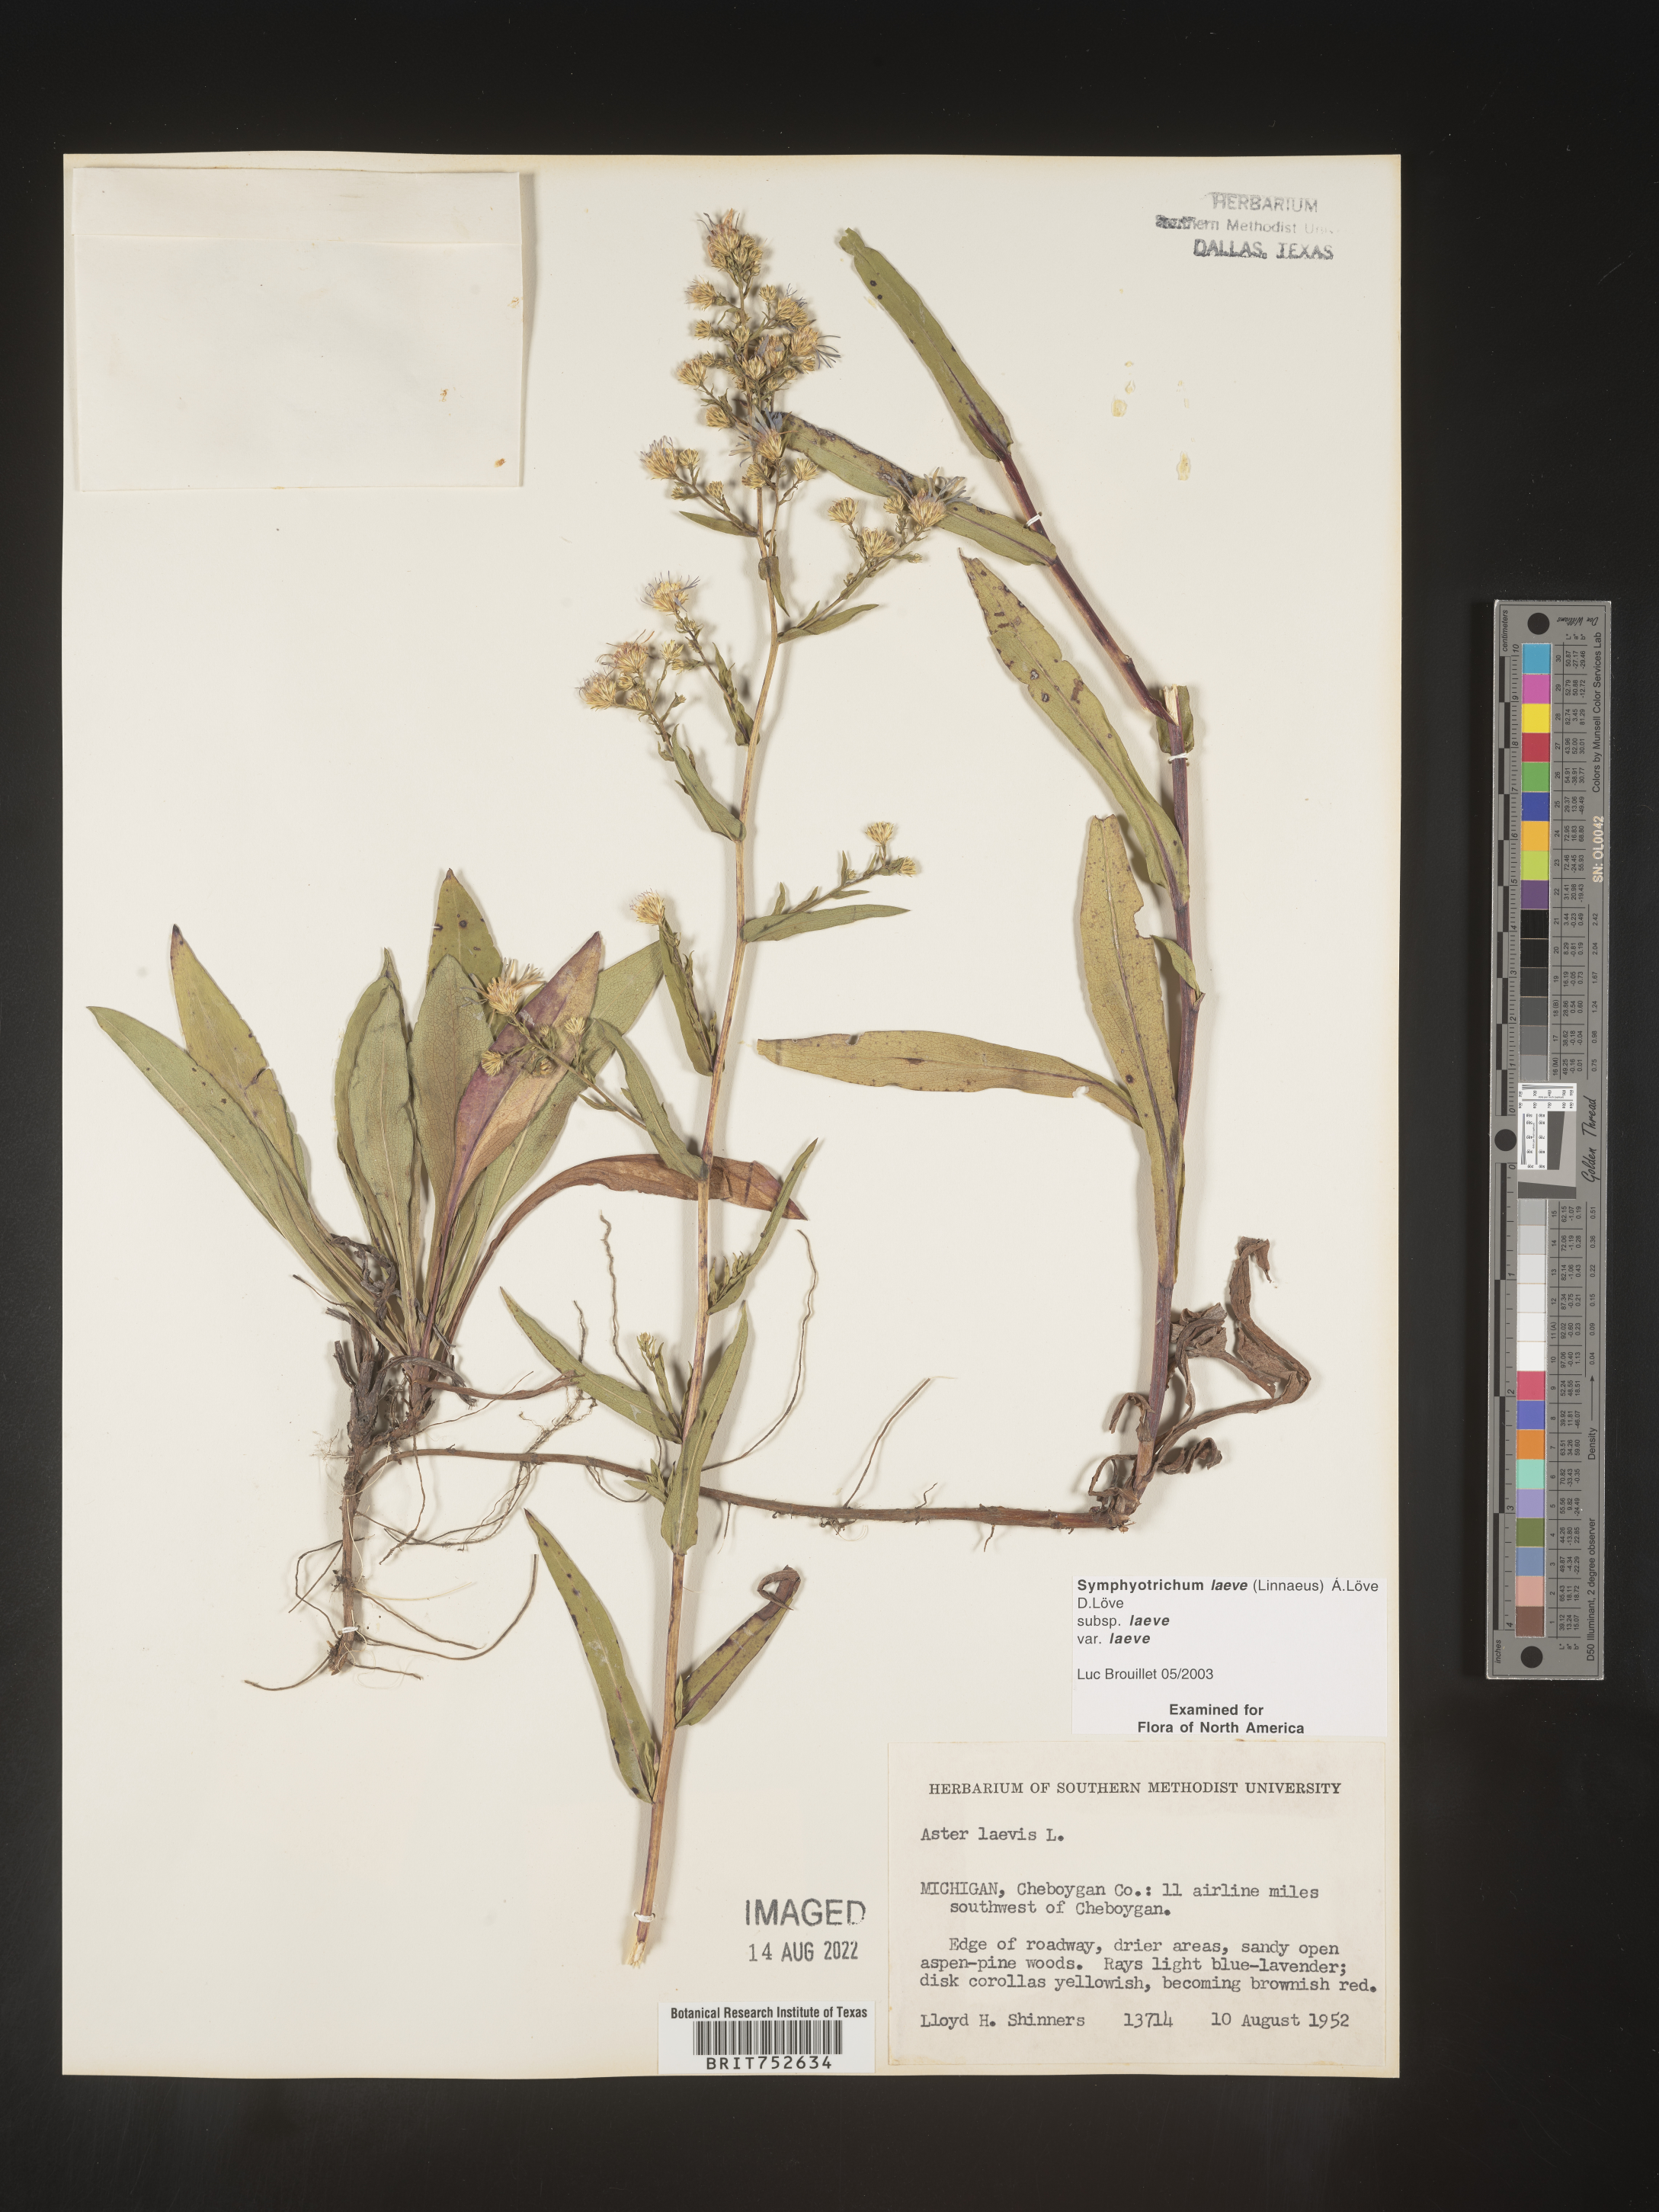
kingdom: Plantae
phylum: Tracheophyta
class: Magnoliopsida
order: Asterales
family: Asteraceae
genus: Symphyotrichum
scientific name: Symphyotrichum laeve
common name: Glaucous aster
